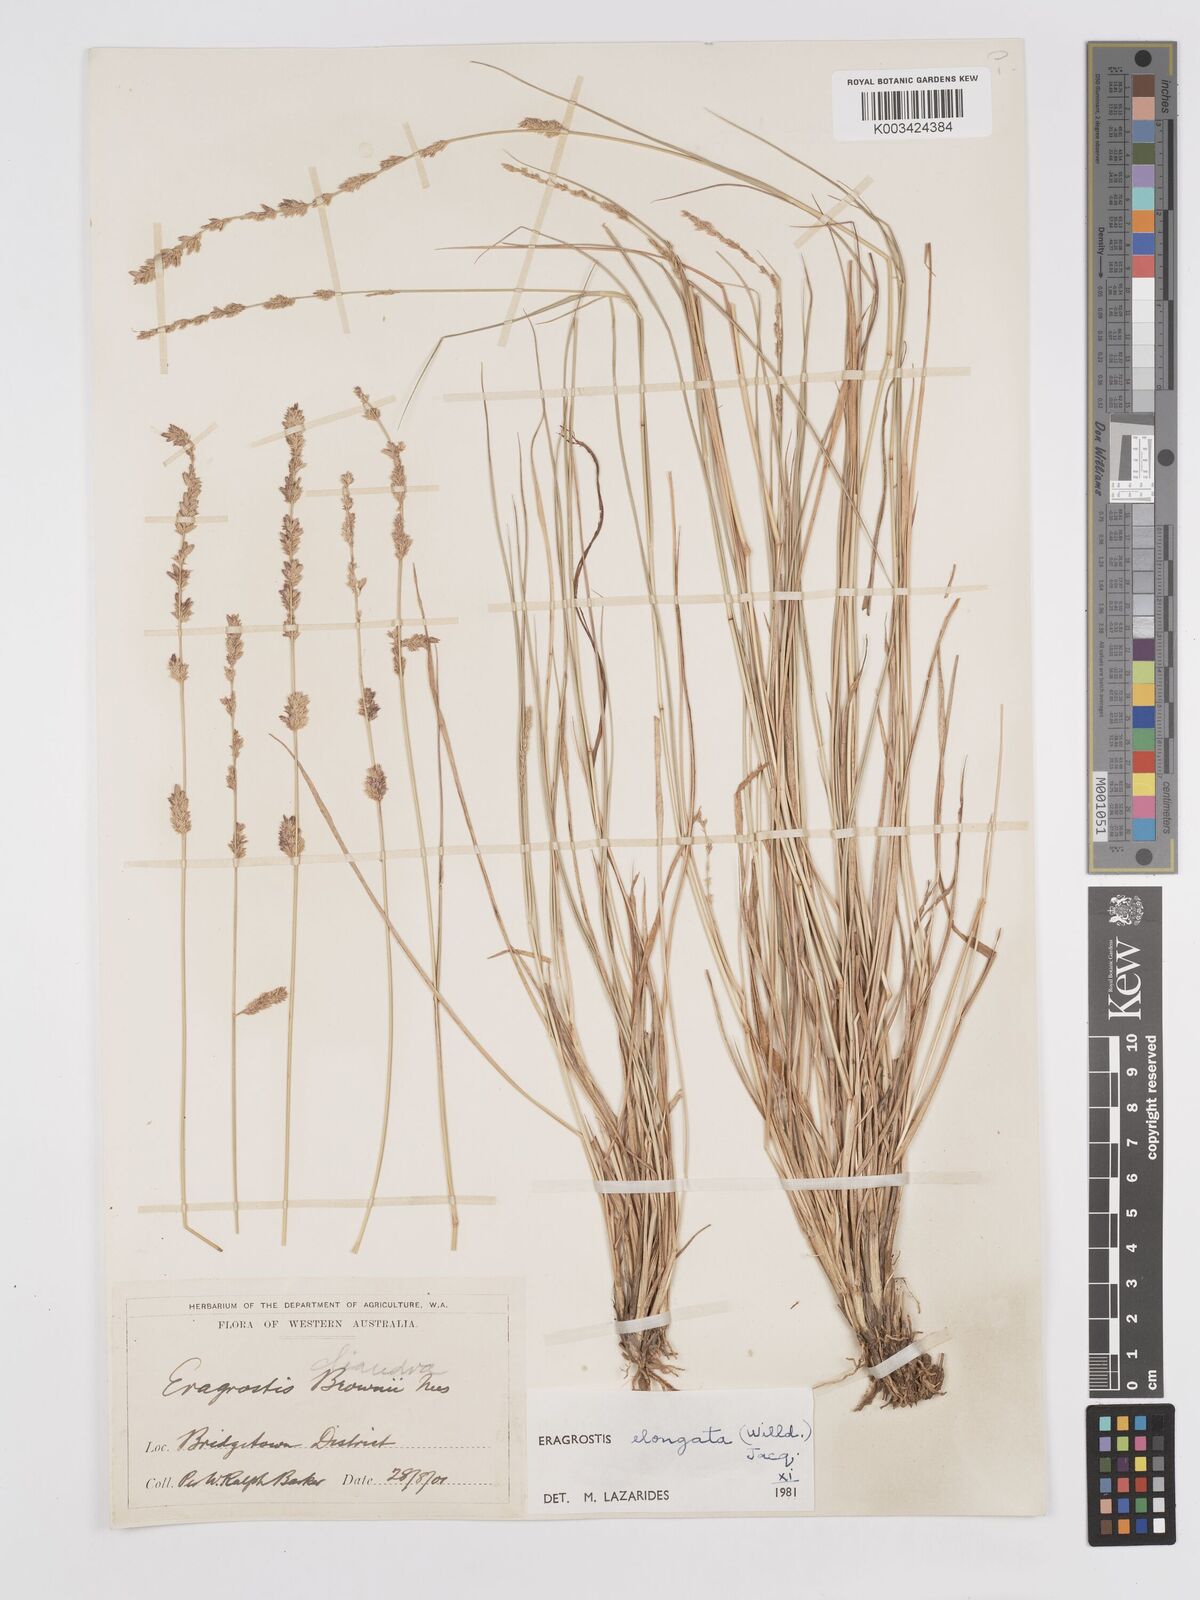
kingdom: Plantae
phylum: Tracheophyta
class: Liliopsida
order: Poales
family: Poaceae
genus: Eragrostis
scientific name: Eragrostis elongata
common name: Long lovegrass
